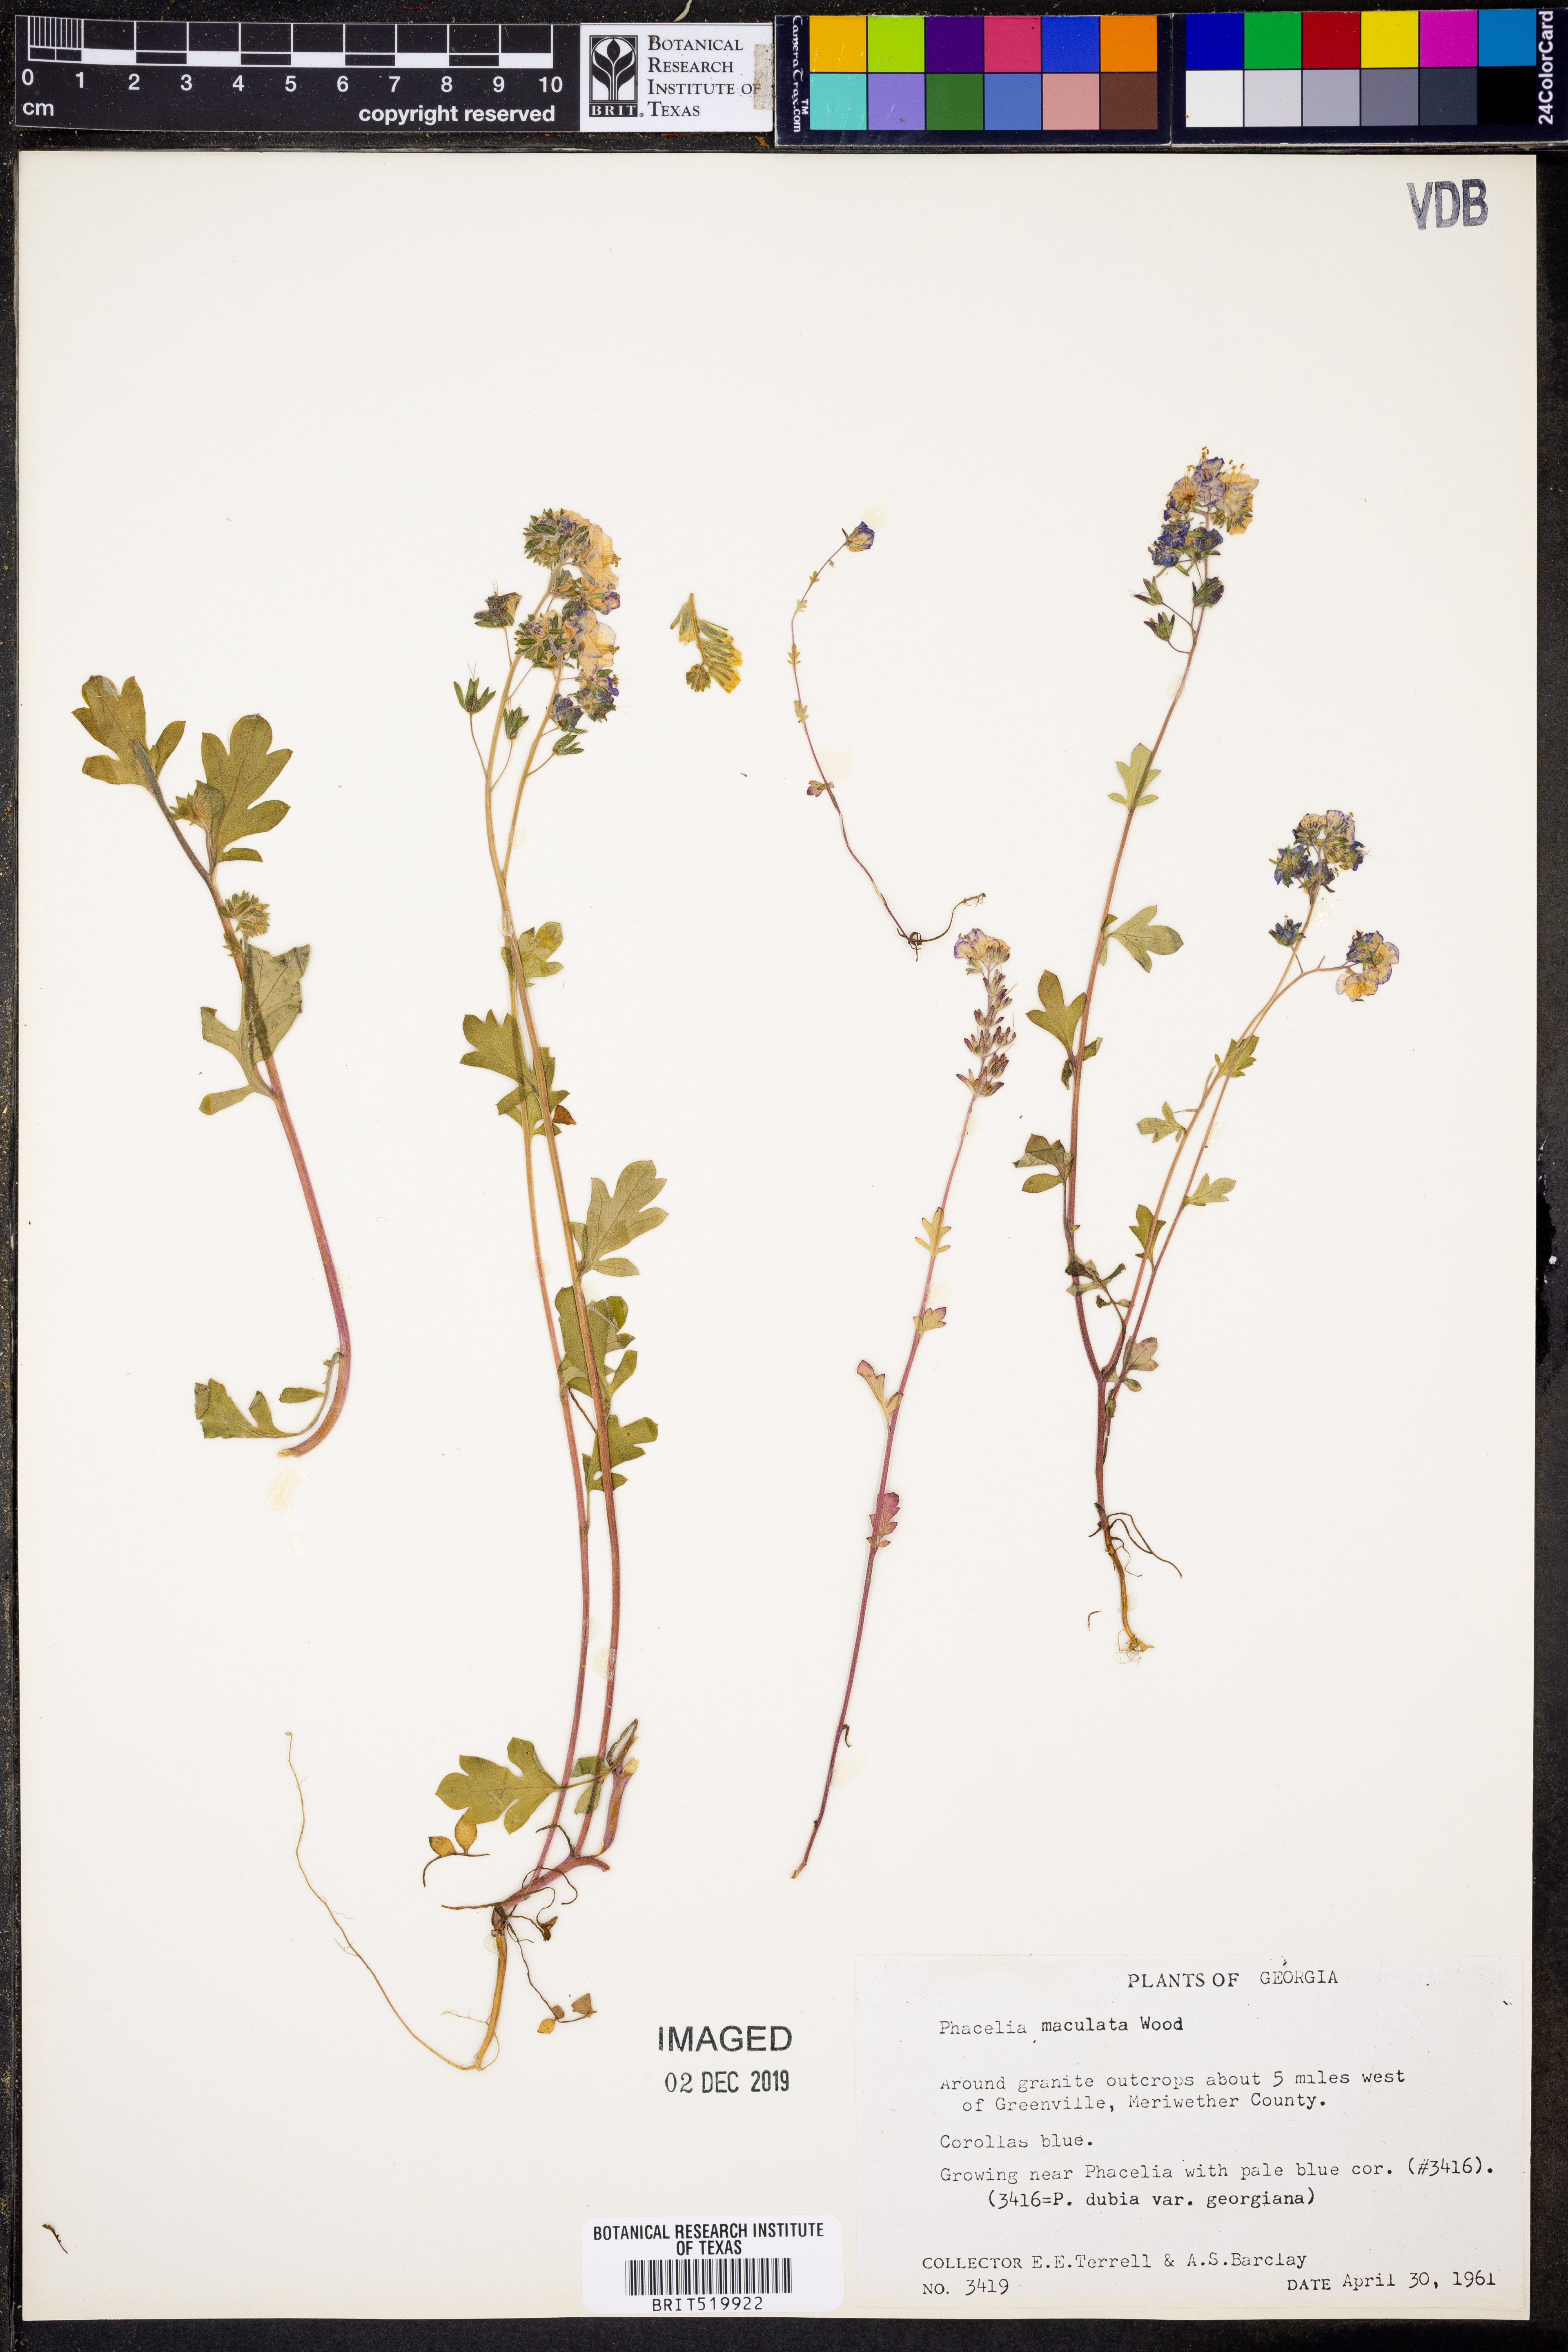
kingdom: Plantae
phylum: Tracheophyta
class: Magnoliopsida
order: Boraginales
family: Hydrophyllaceae
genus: Phacelia
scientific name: Phacelia maculata
